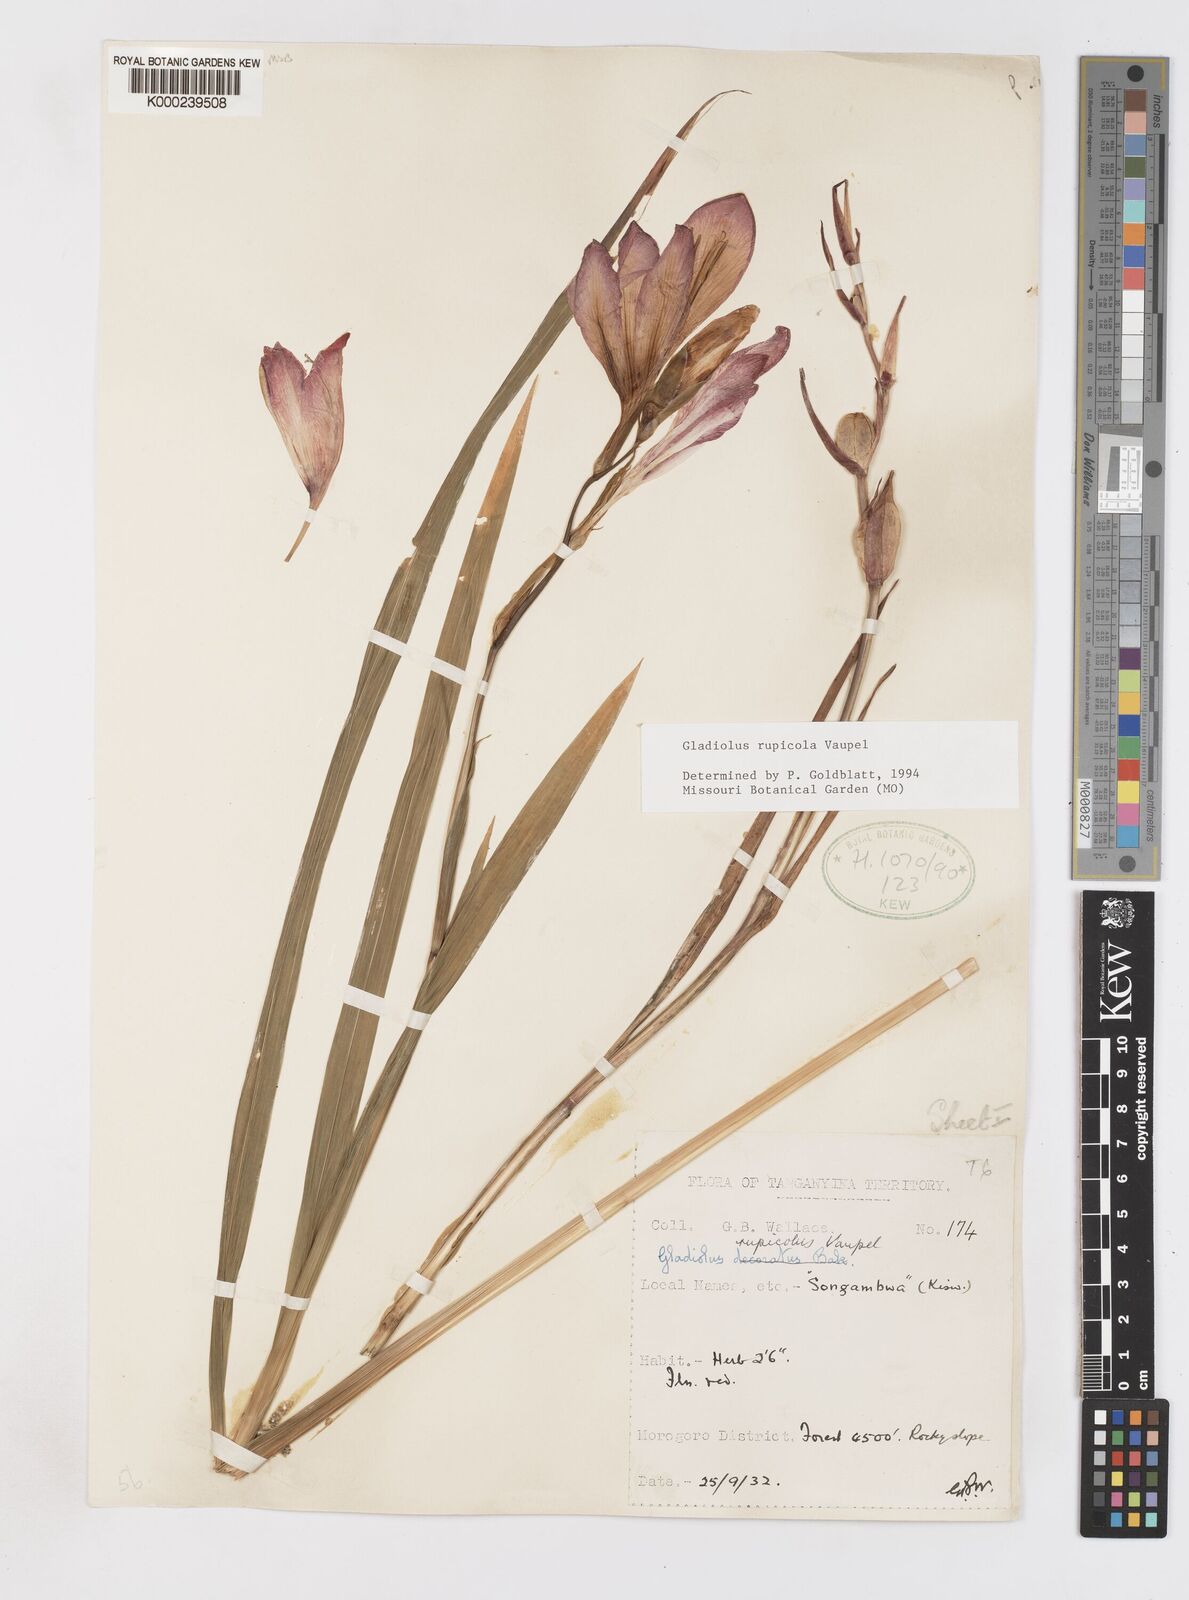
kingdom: Plantae
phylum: Tracheophyta
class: Liliopsida
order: Asparagales
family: Iridaceae
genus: Gladiolus
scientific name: Gladiolus rupicola
